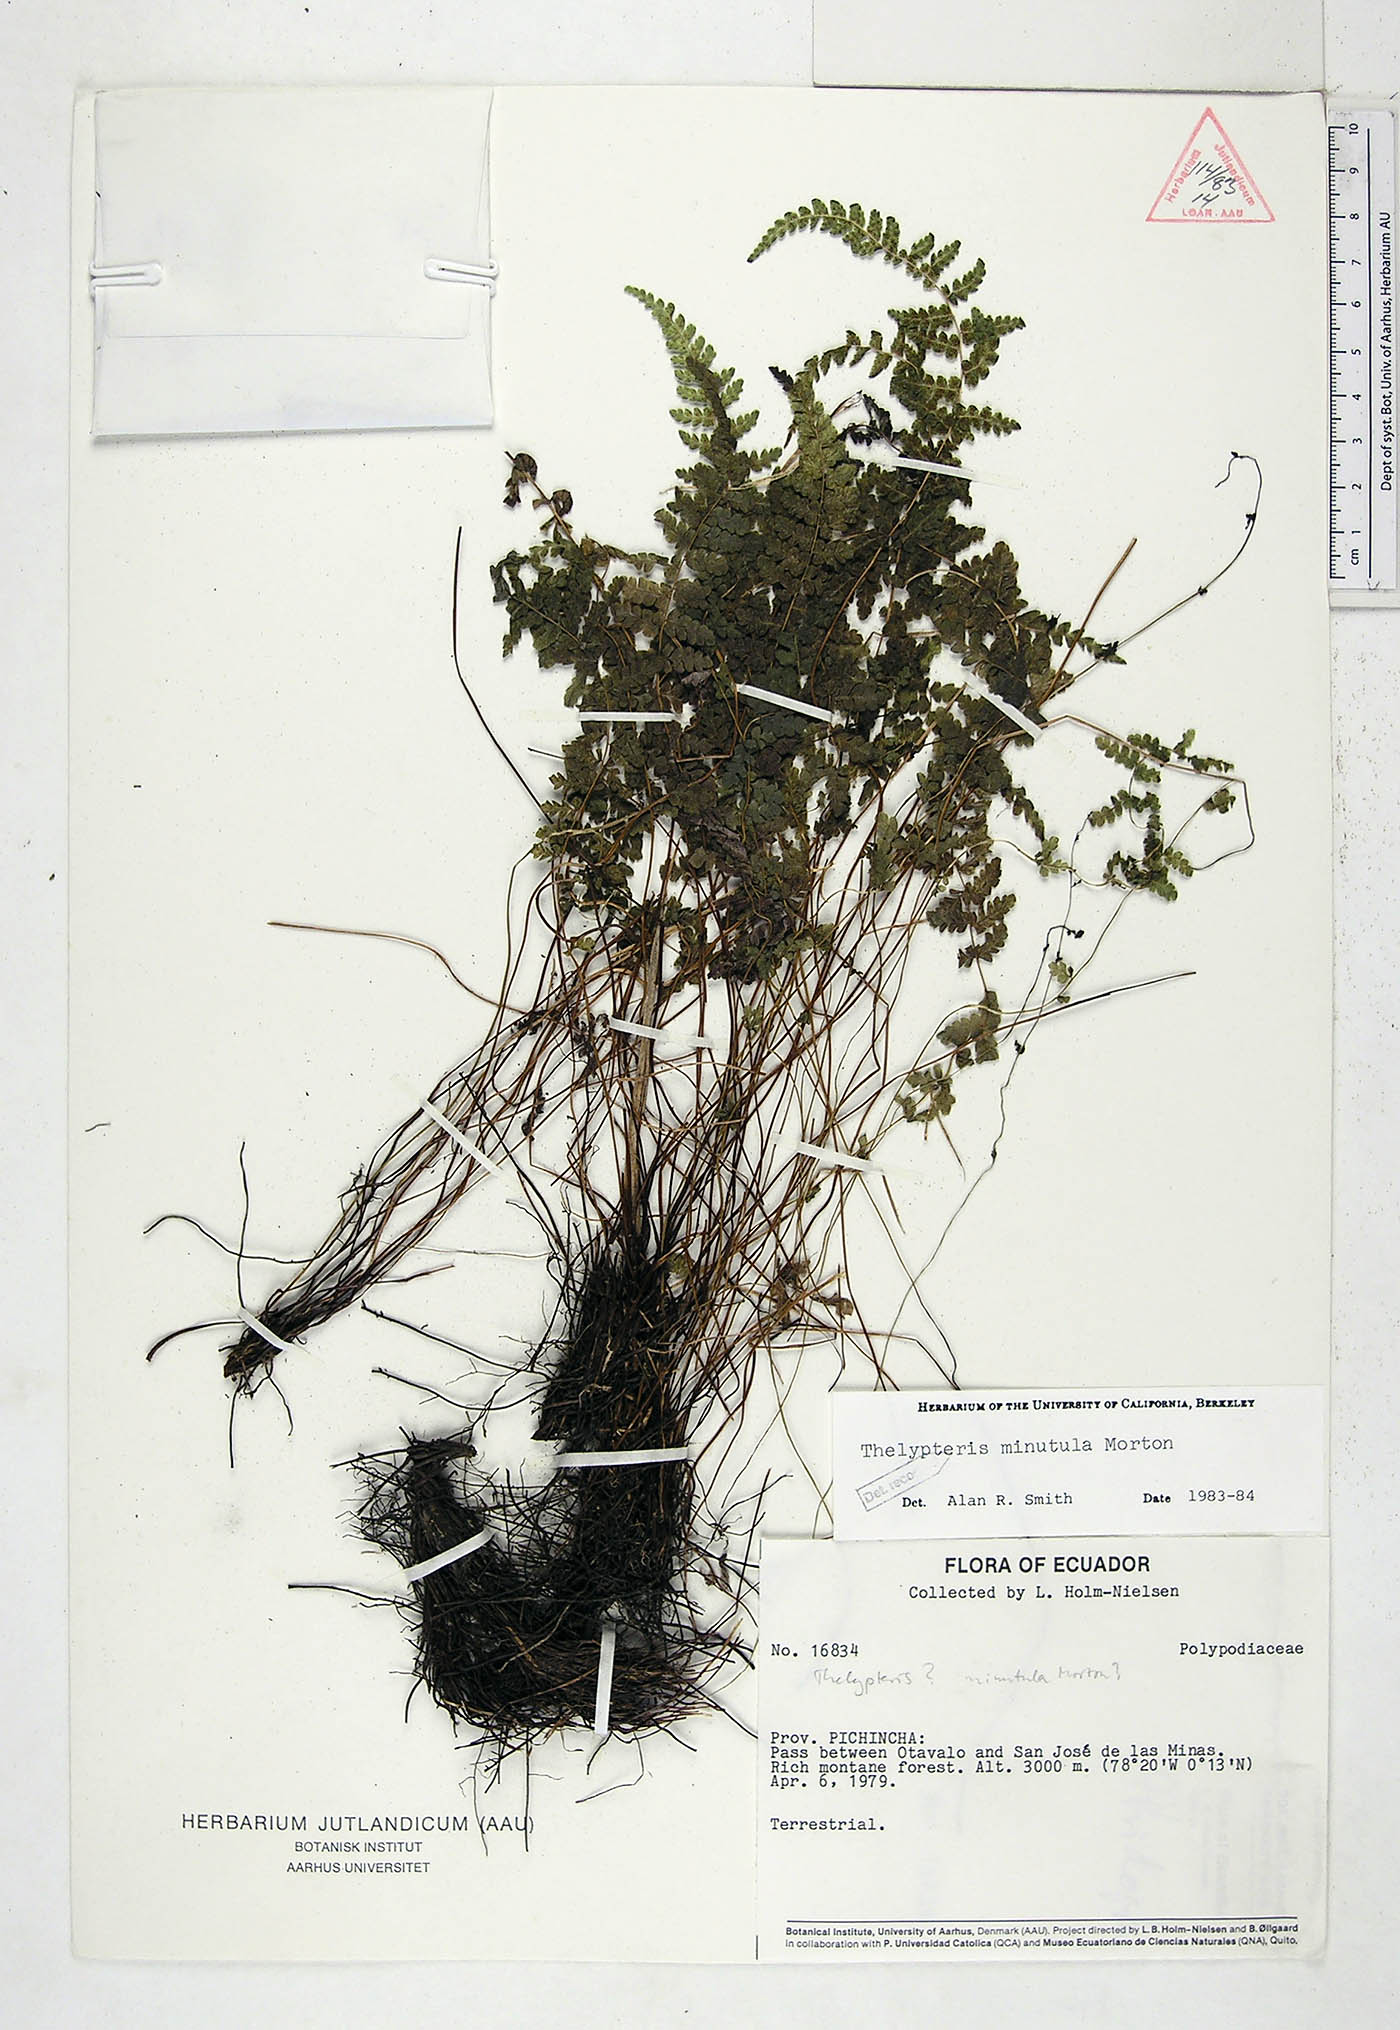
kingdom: Plantae
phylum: Tracheophyta
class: Polypodiopsida
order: Polypodiales
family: Thelypteridaceae
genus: Amauropelta
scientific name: Amauropelta minutula
